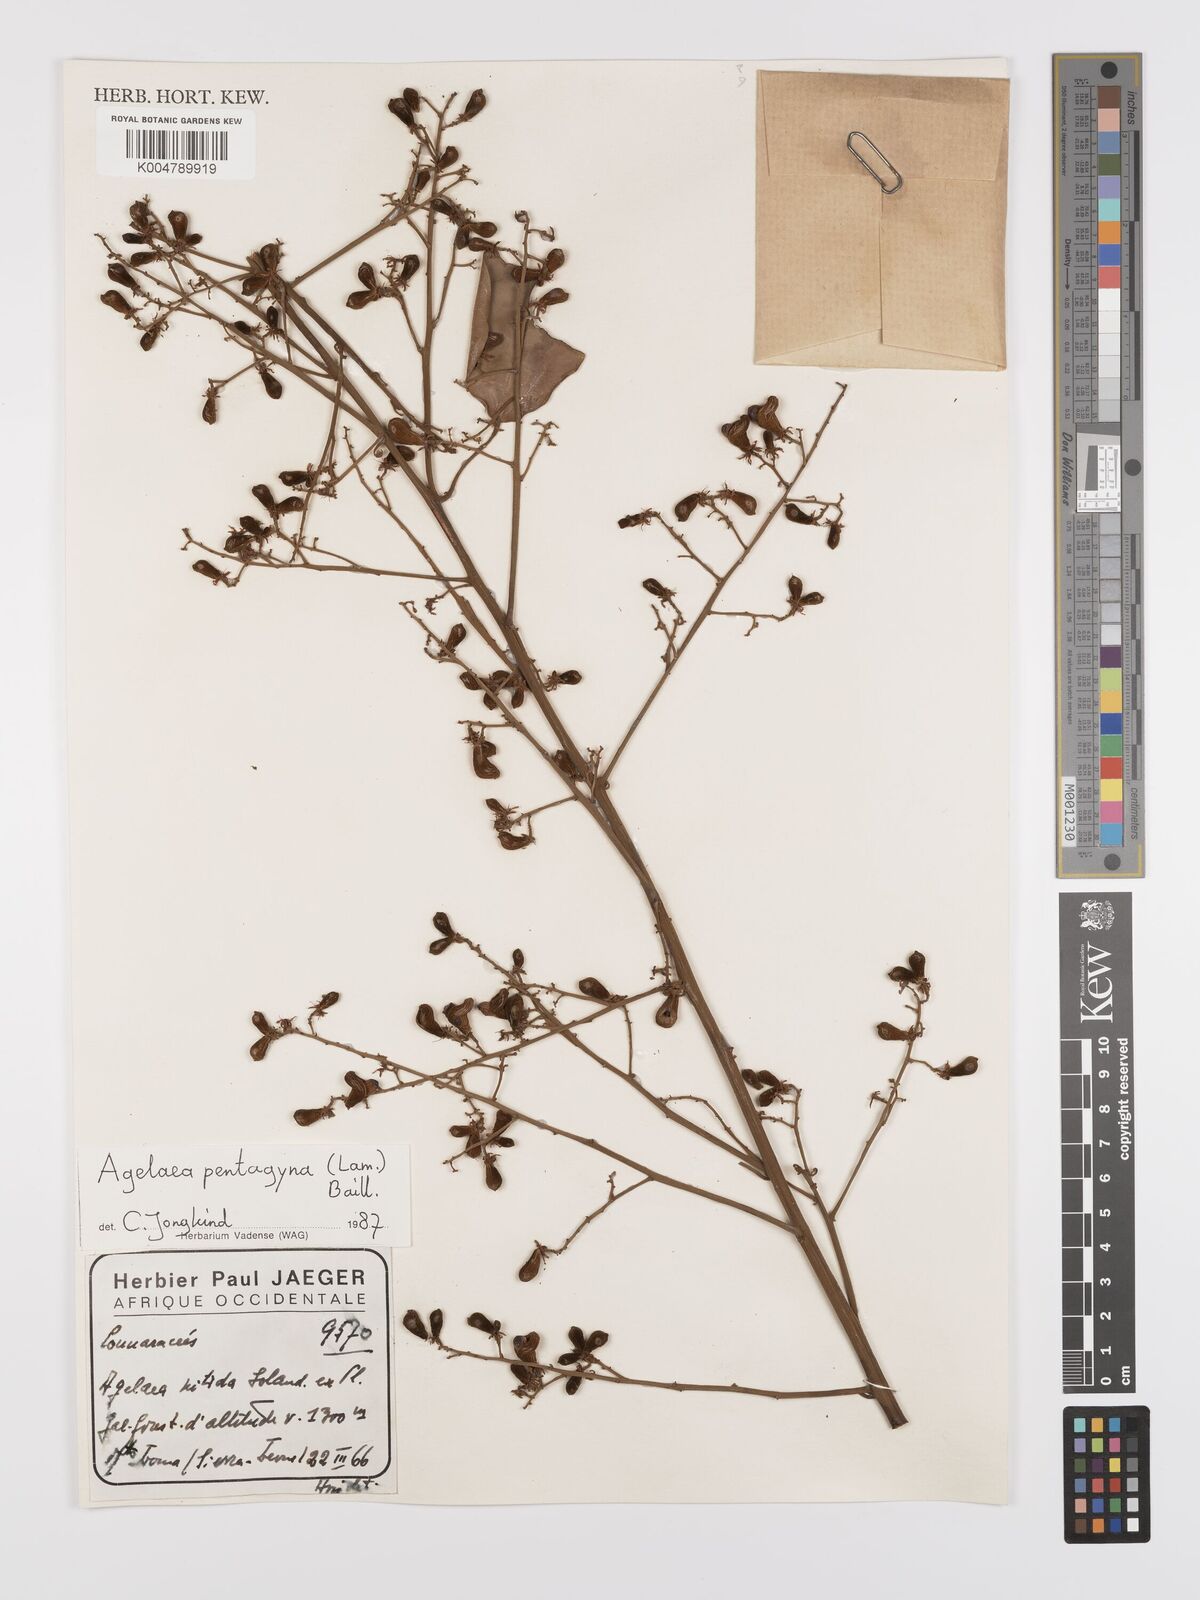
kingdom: Plantae
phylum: Tracheophyta
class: Magnoliopsida
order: Oxalidales
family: Connaraceae
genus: Agelaea
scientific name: Agelaea pentagyna
